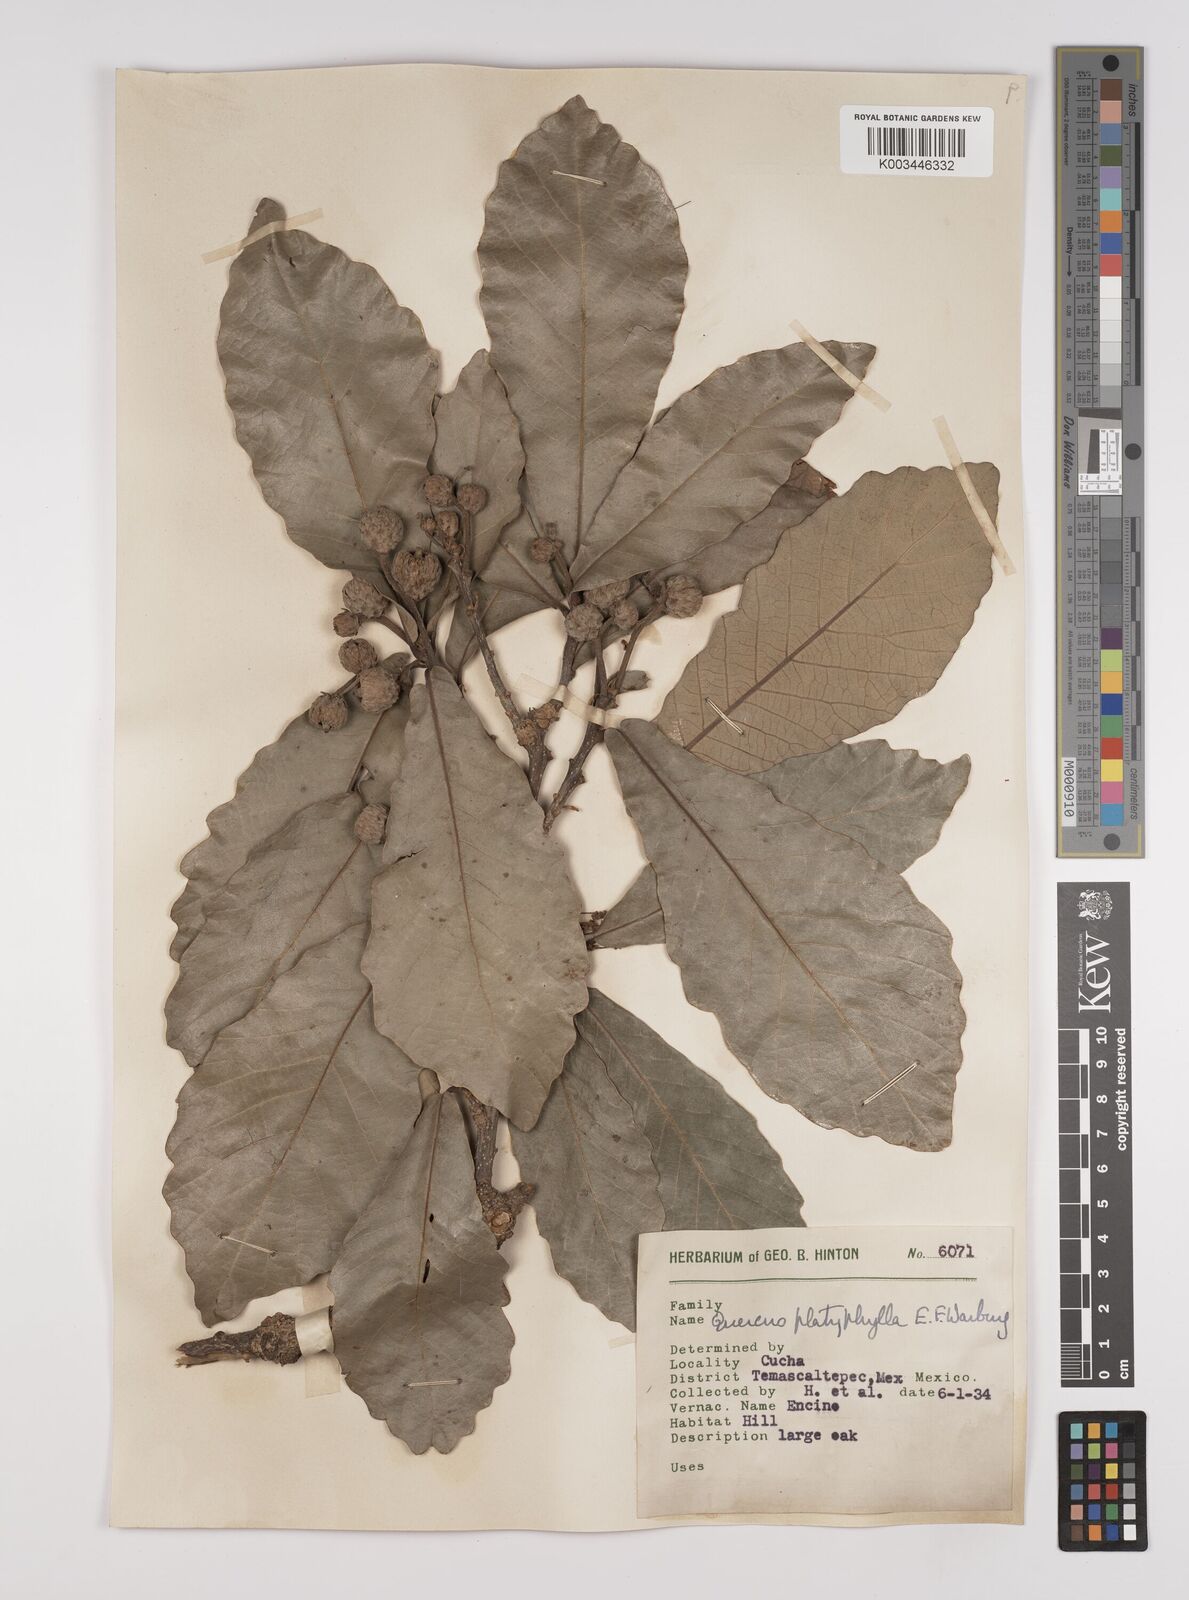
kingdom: Plantae
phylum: Tracheophyta
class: Magnoliopsida
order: Fagales
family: Fagaceae
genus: Quercus
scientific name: Quercus
